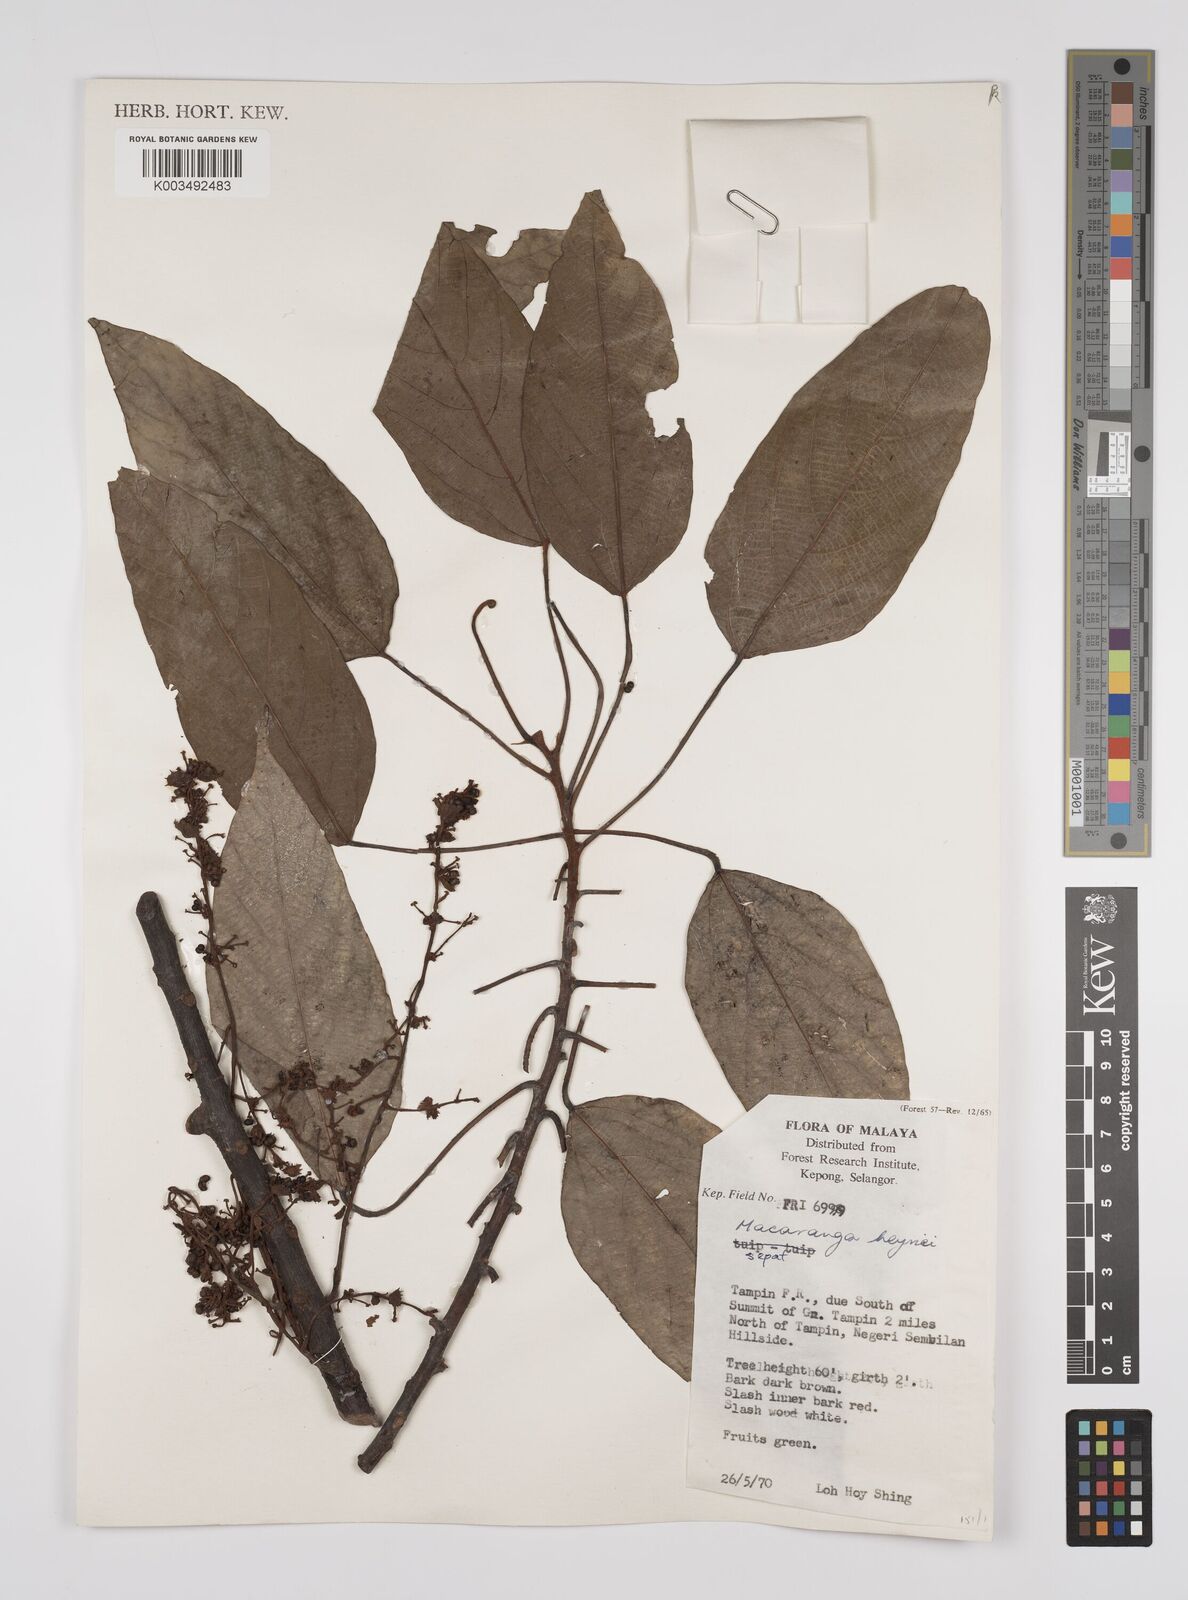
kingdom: Plantae
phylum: Tracheophyta
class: Magnoliopsida
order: Malpighiales
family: Euphorbiaceae
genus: Macaranga
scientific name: Macaranga heynei
